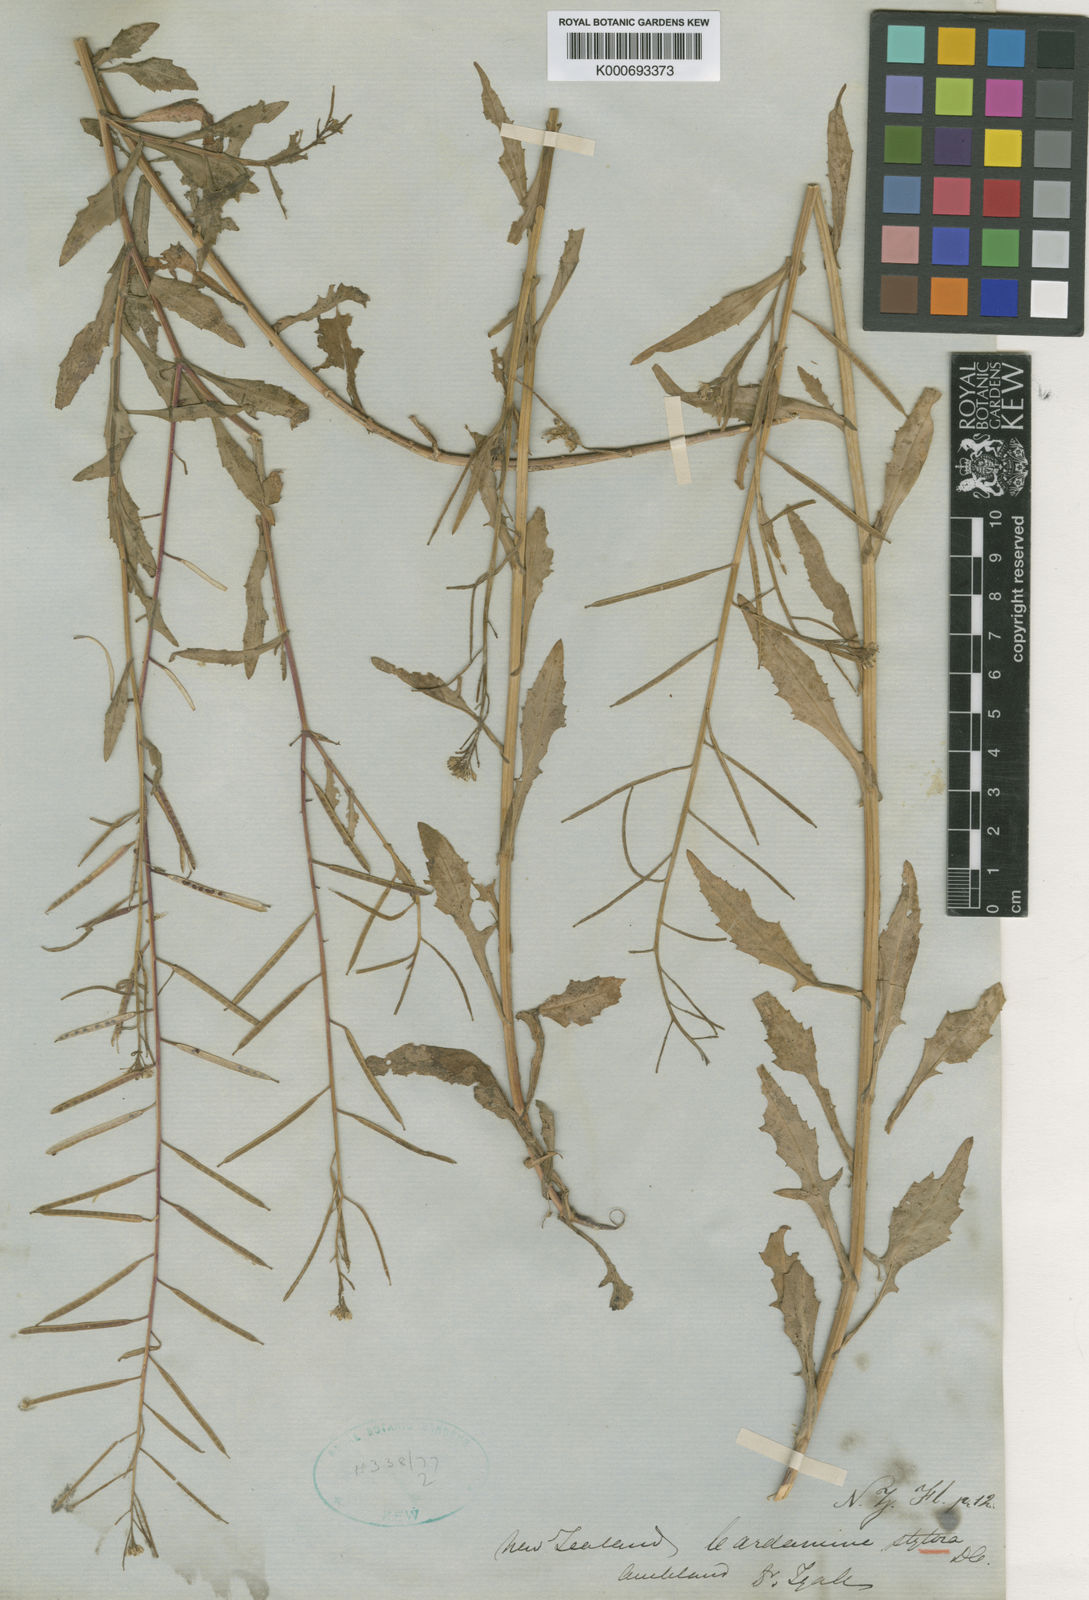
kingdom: Plantae
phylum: Tracheophyta
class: Magnoliopsida
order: Brassicales
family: Brassicaceae
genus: Rorippa
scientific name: Rorippa pyrenaica
